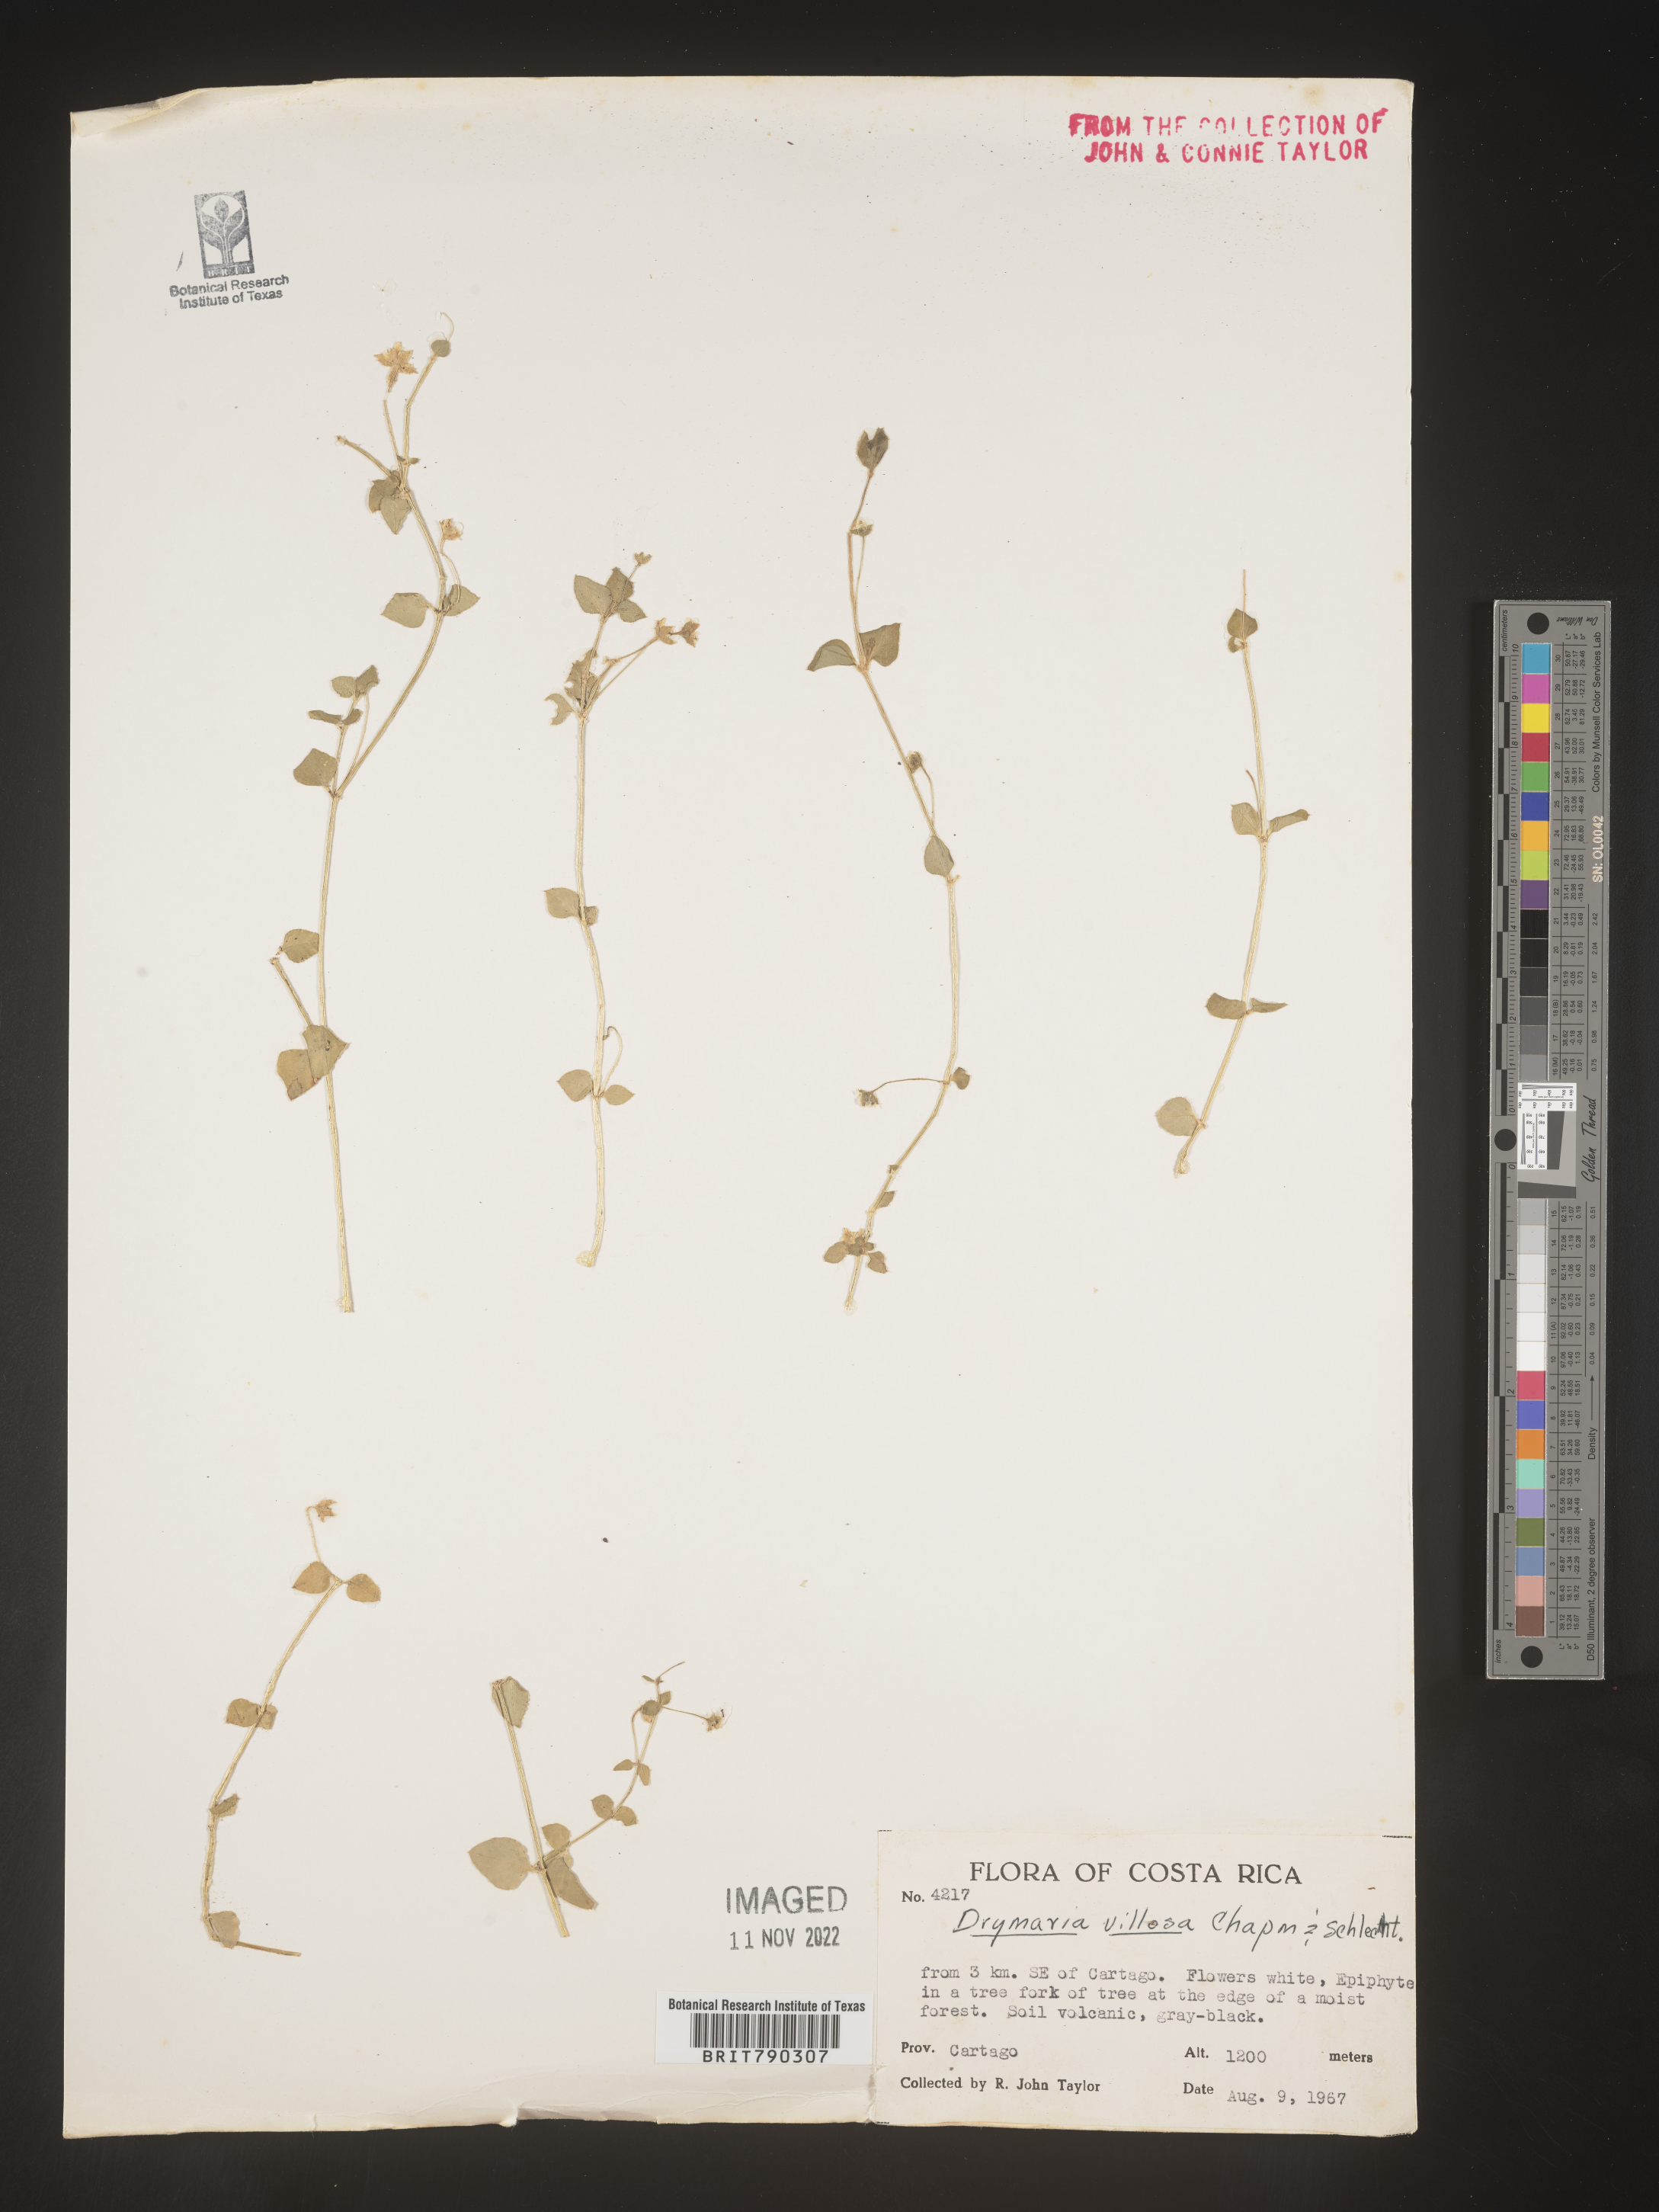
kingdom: Plantae
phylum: Tracheophyta
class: Magnoliopsida
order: Caryophyllales
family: Caryophyllaceae
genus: Drymaria
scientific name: Drymaria
